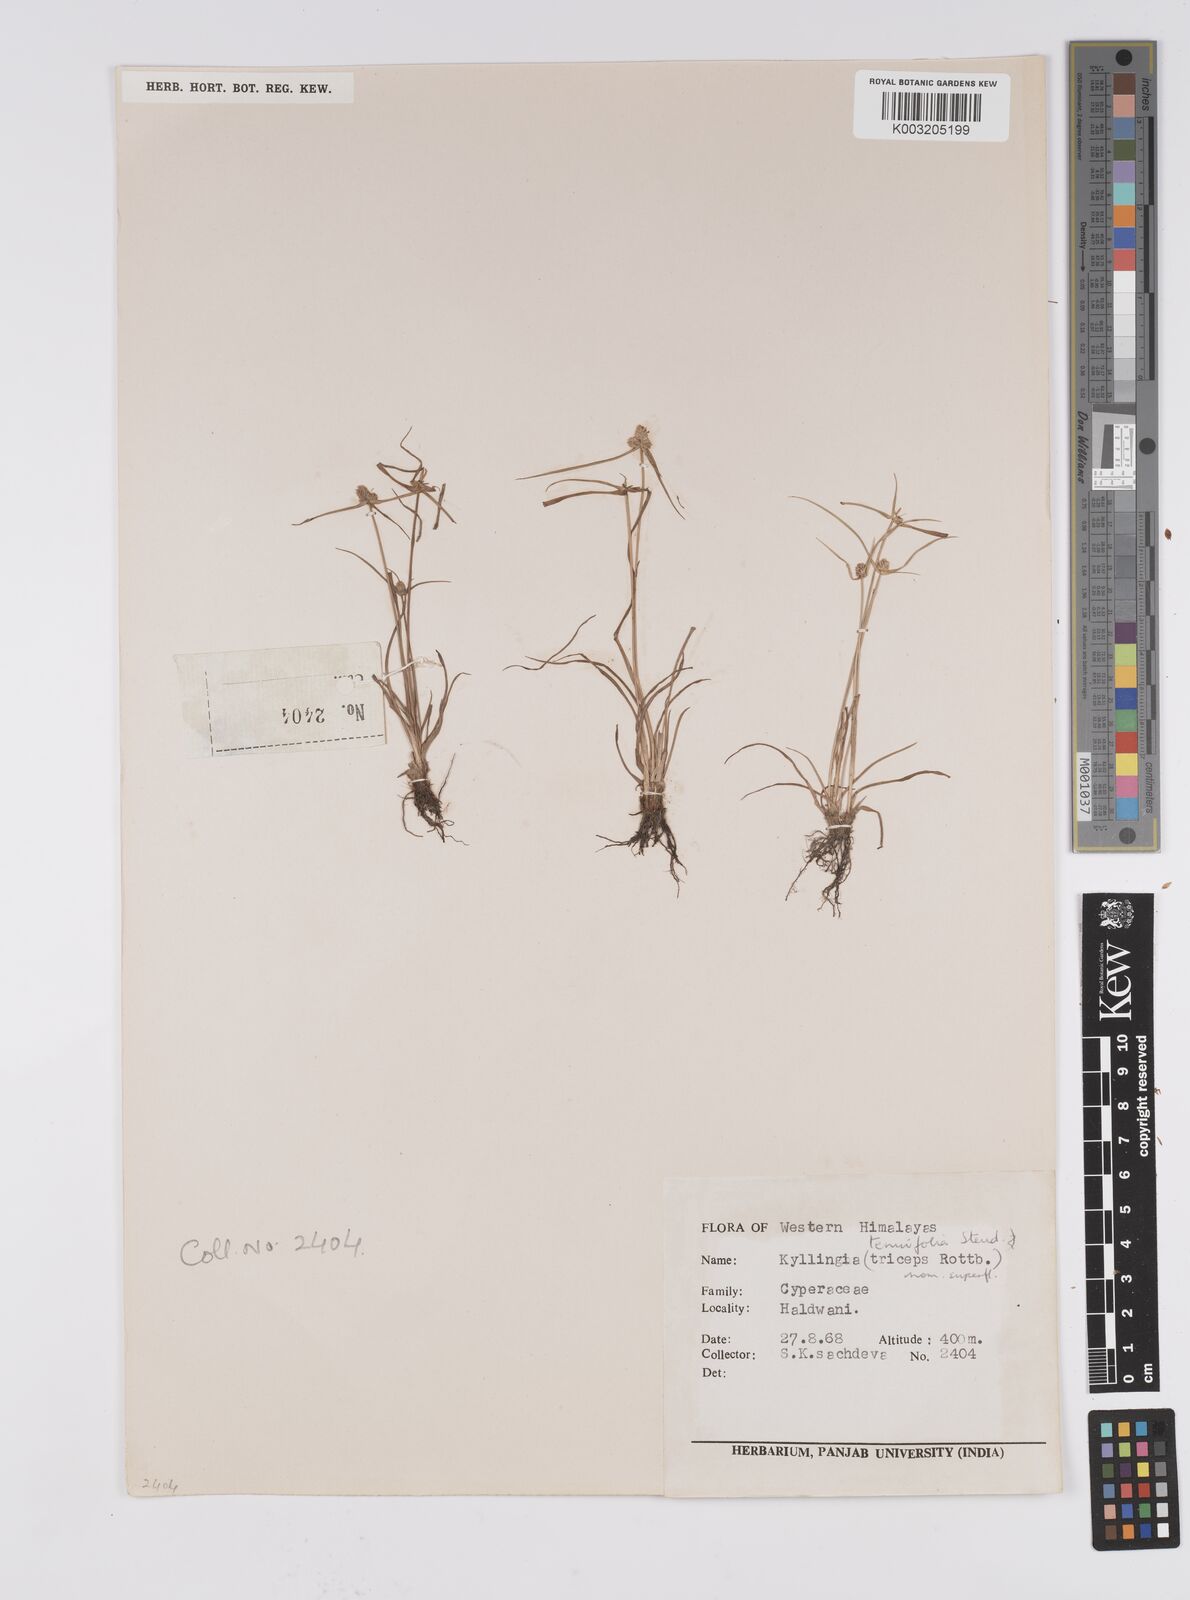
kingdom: Plantae
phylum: Tracheophyta
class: Liliopsida
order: Poales
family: Cyperaceae
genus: Cyperus
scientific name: Cyperus
